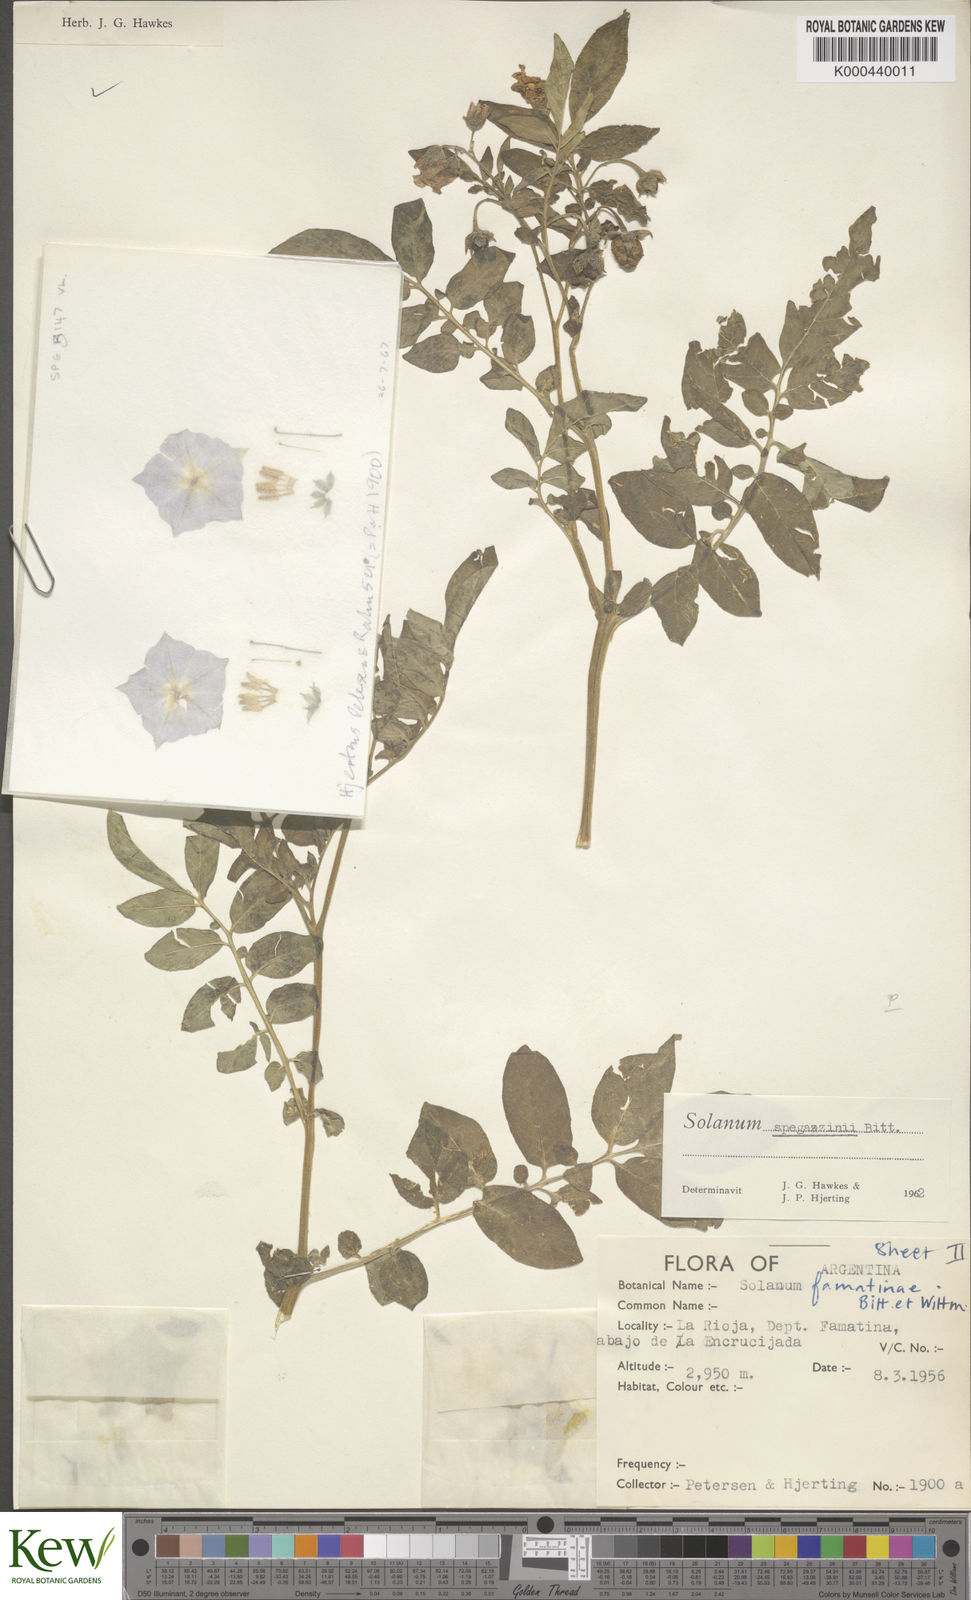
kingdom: Plantae
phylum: Tracheophyta
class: Magnoliopsida
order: Solanales
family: Solanaceae
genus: Solanum
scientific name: Solanum brevicaule
